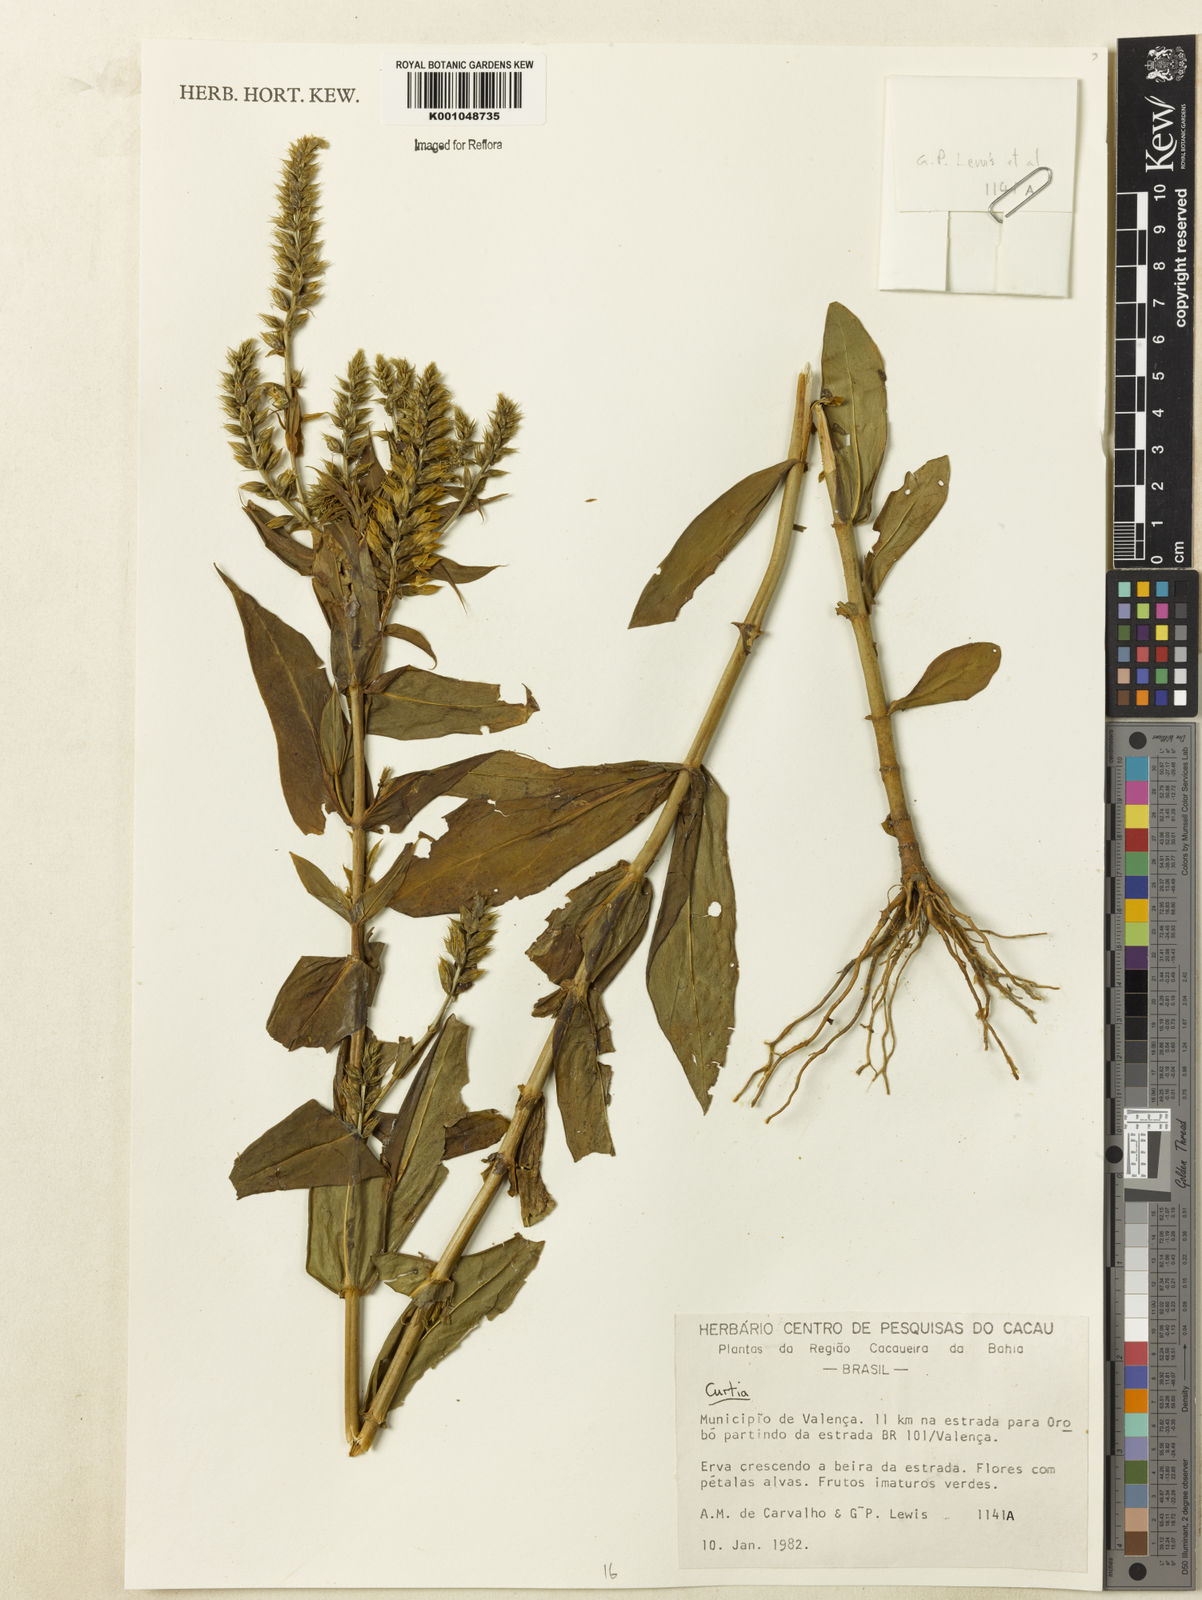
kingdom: Plantae
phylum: Tracheophyta
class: Magnoliopsida
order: Gentianales
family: Gentianaceae
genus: Curtia
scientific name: Curtia
